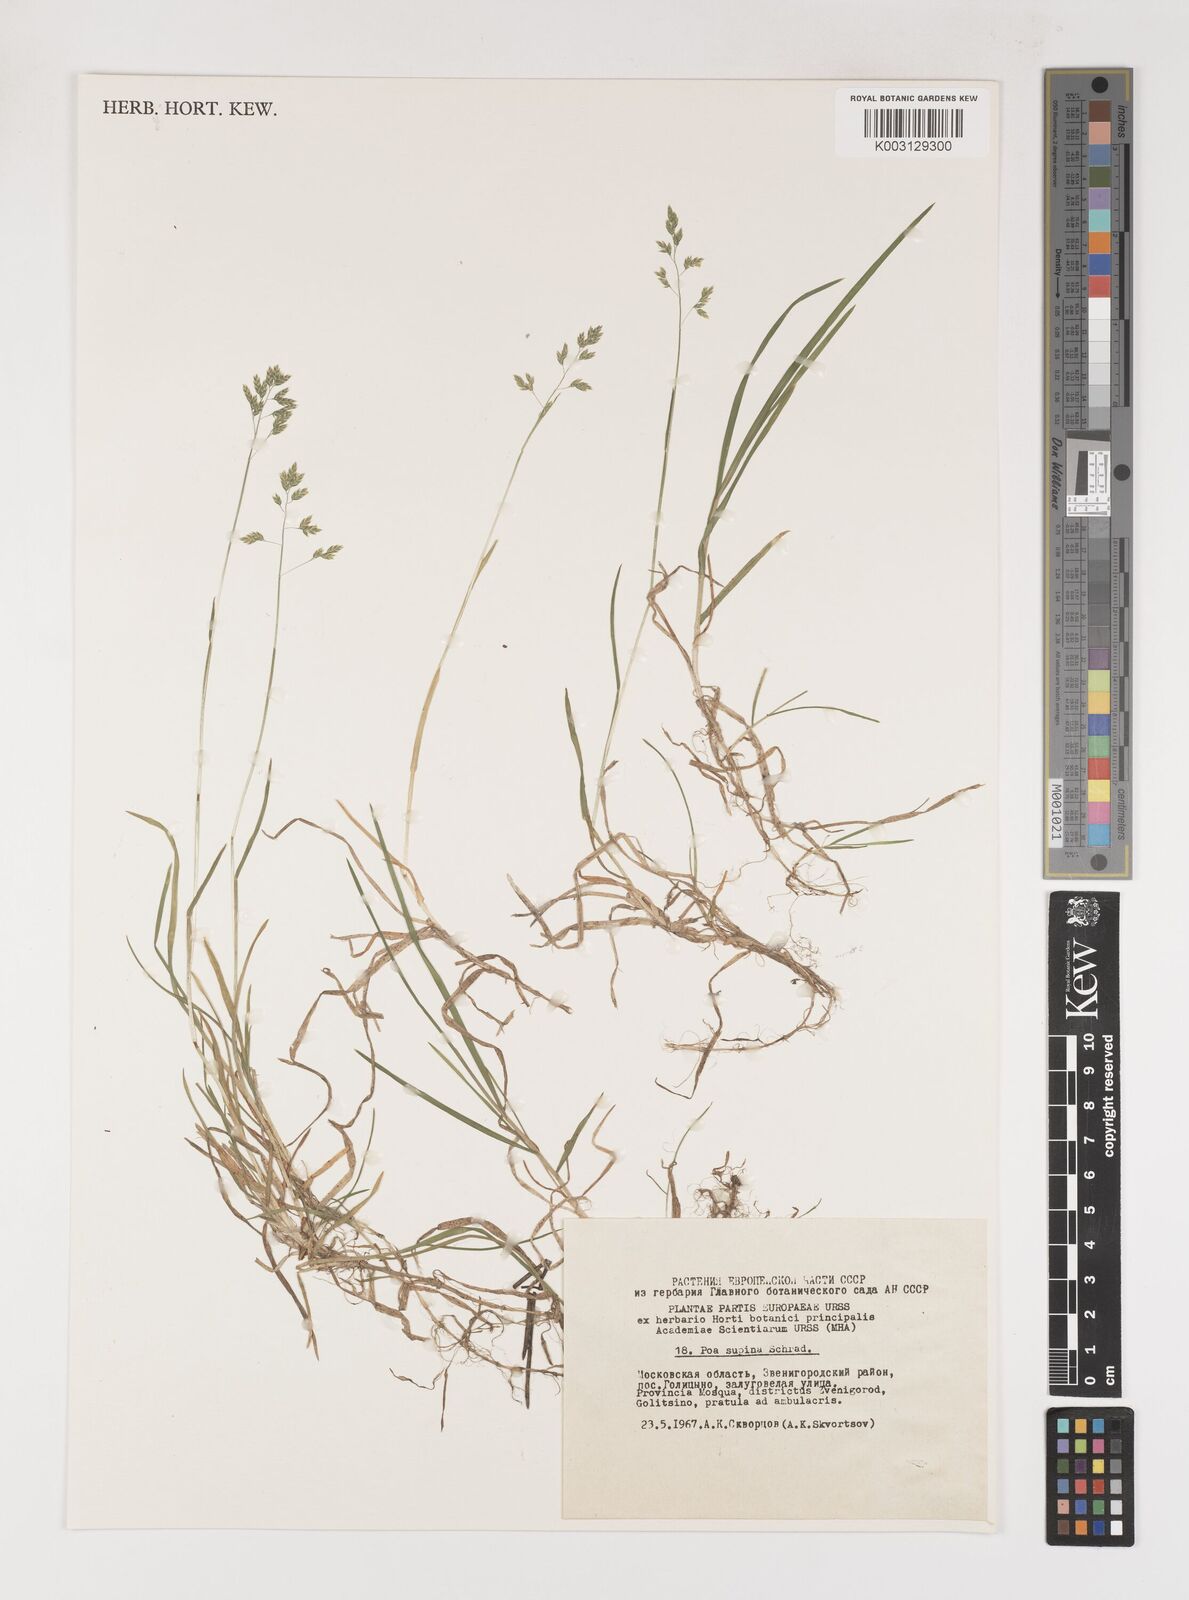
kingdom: Plantae
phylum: Tracheophyta
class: Liliopsida
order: Poales
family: Poaceae
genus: Poa
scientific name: Poa supina
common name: Supina bluegrass
